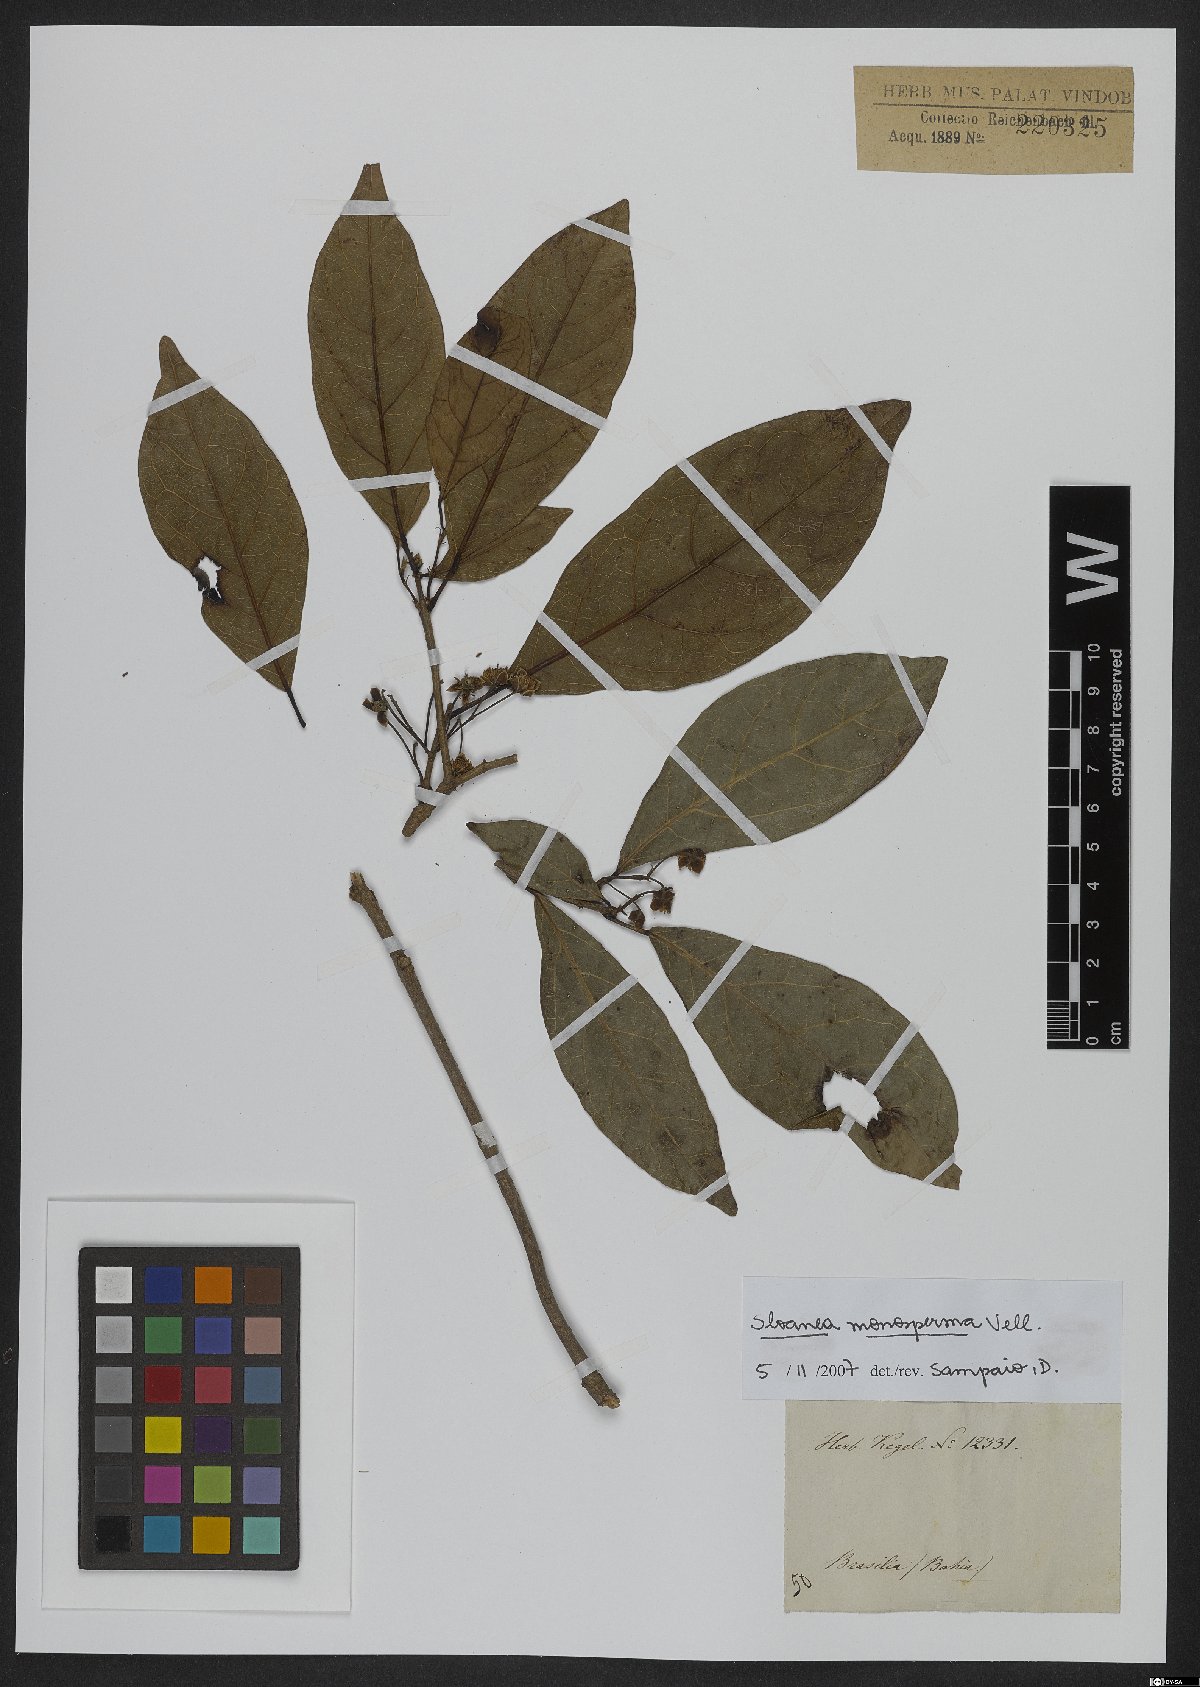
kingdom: Plantae
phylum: Tracheophyta
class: Magnoliopsida
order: Oxalidales
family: Elaeocarpaceae
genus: Sloanea
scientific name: Sloanea hirsuta
